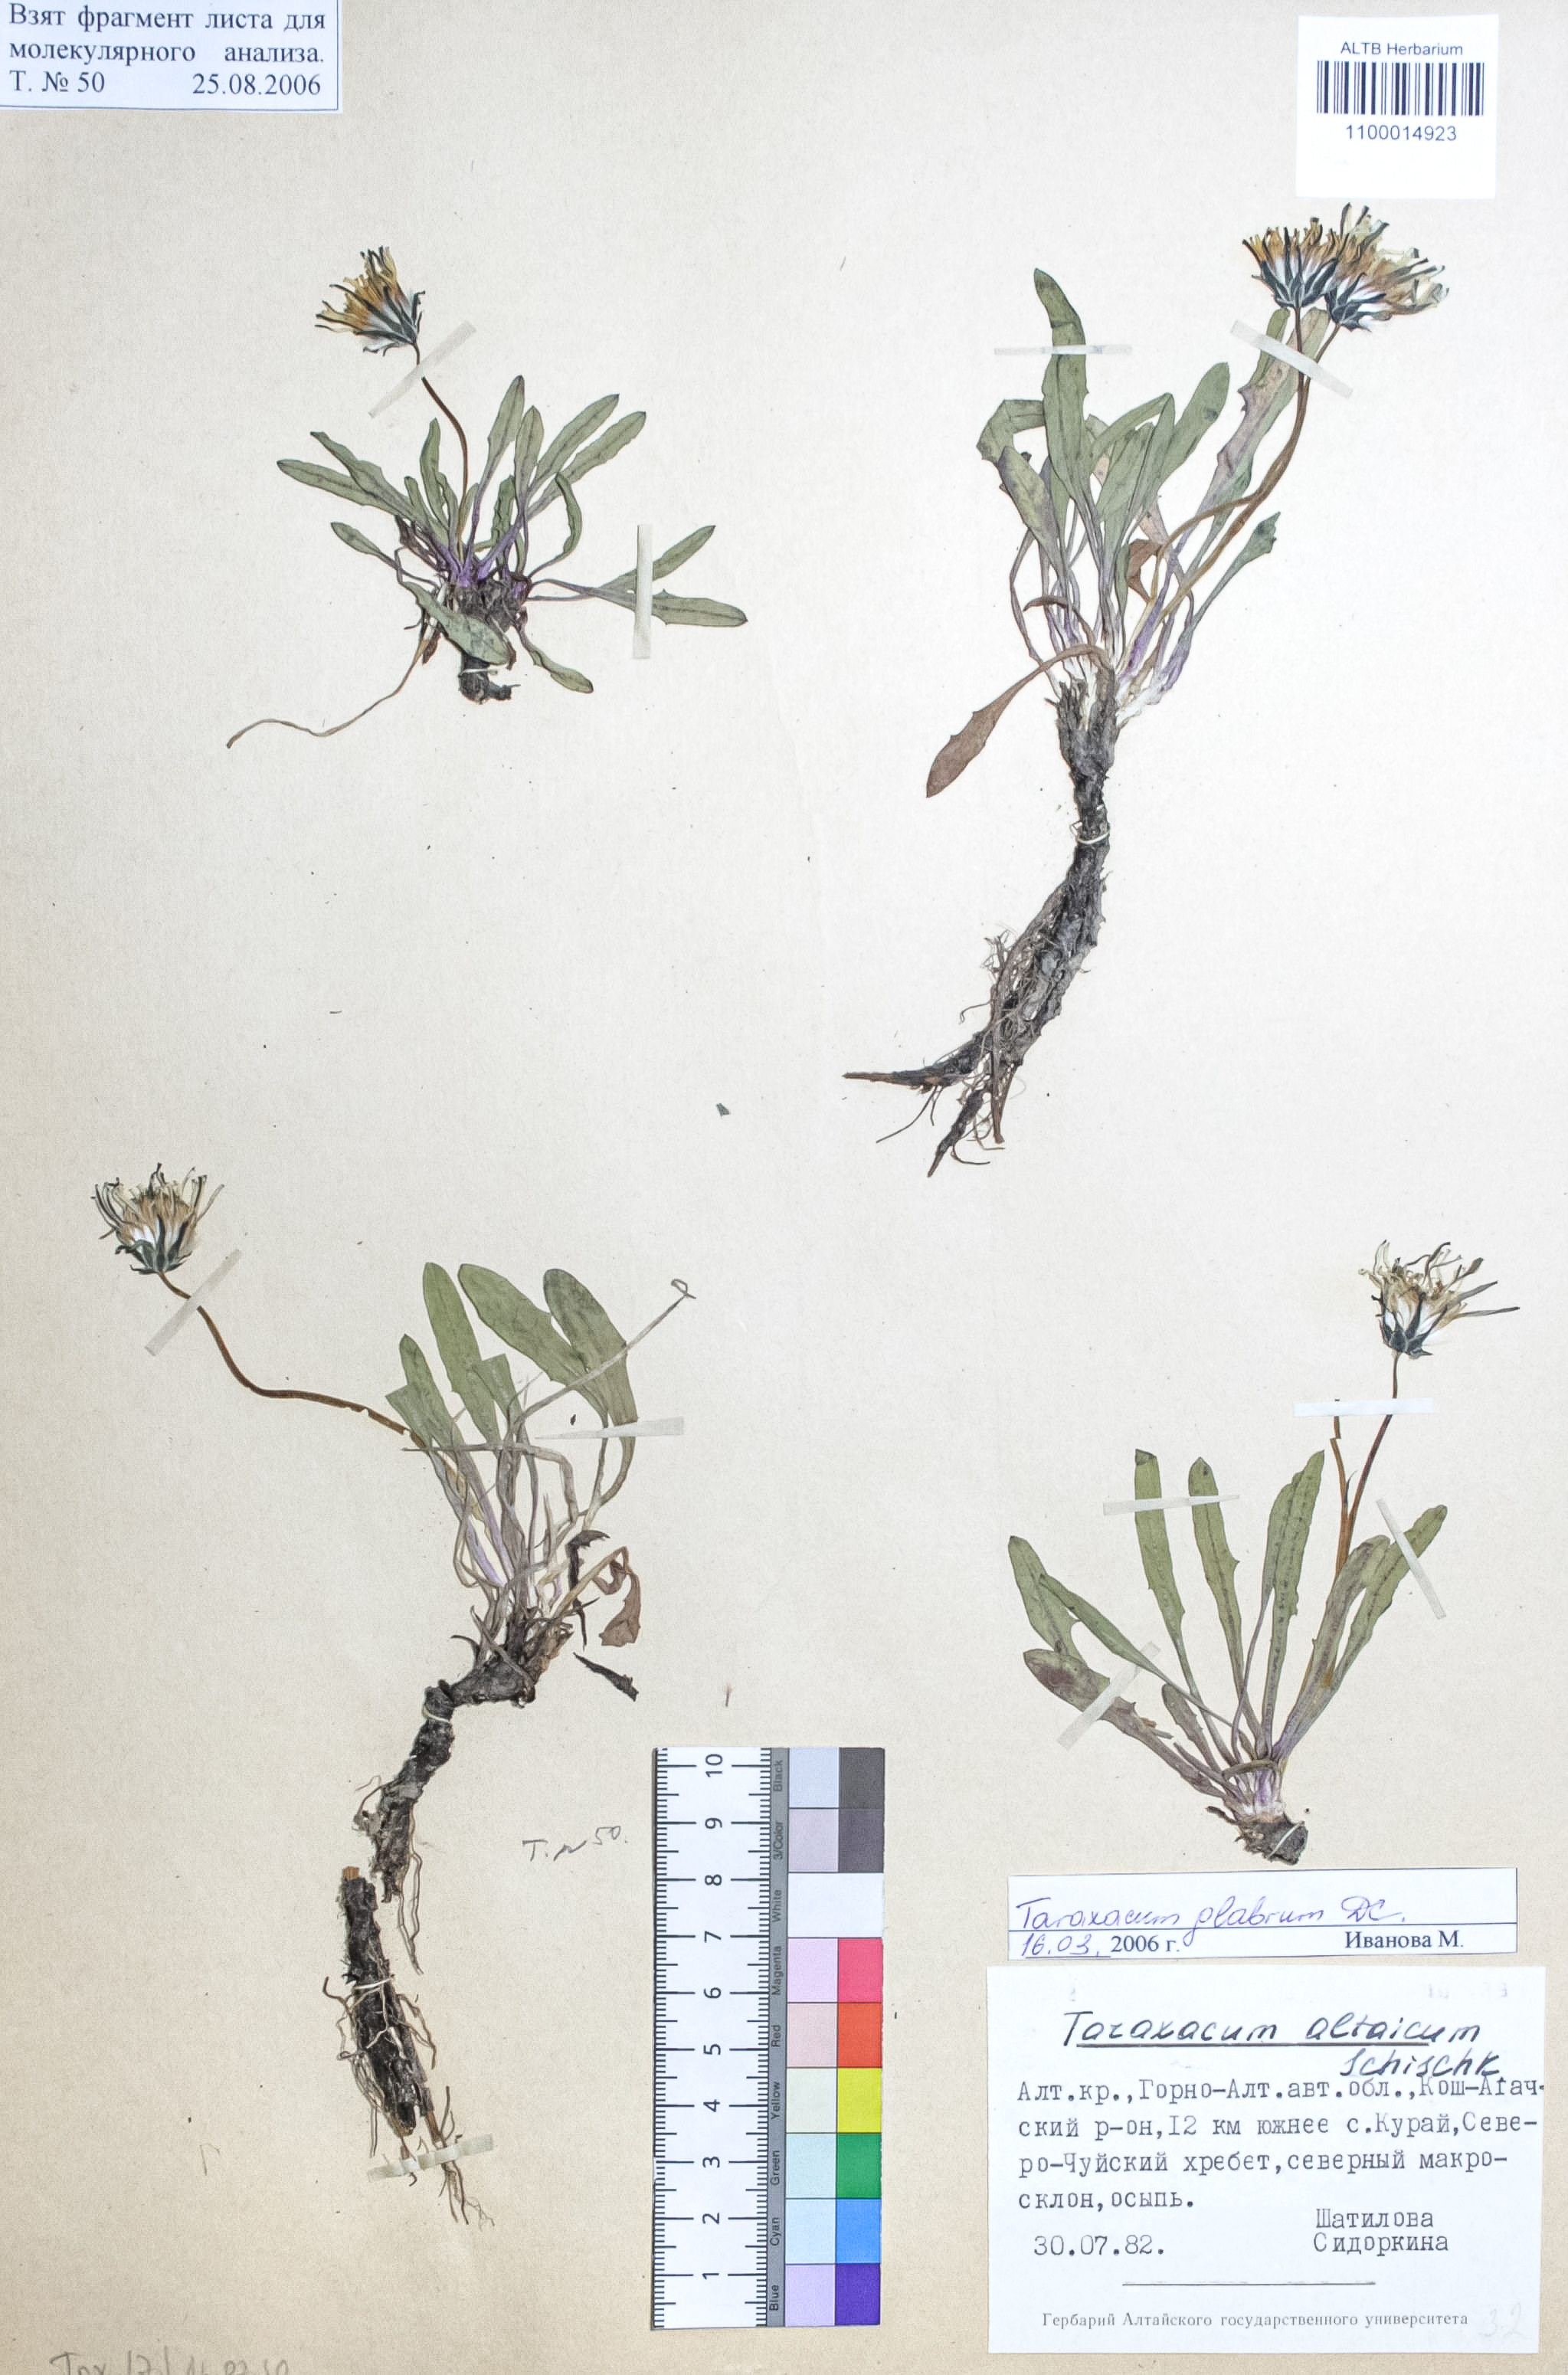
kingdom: Plantae
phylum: Tracheophyta
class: Magnoliopsida
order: Asterales
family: Asteraceae
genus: Taraxacum
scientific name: Taraxacum ceratophorum
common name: Horn-bearing dandelion
